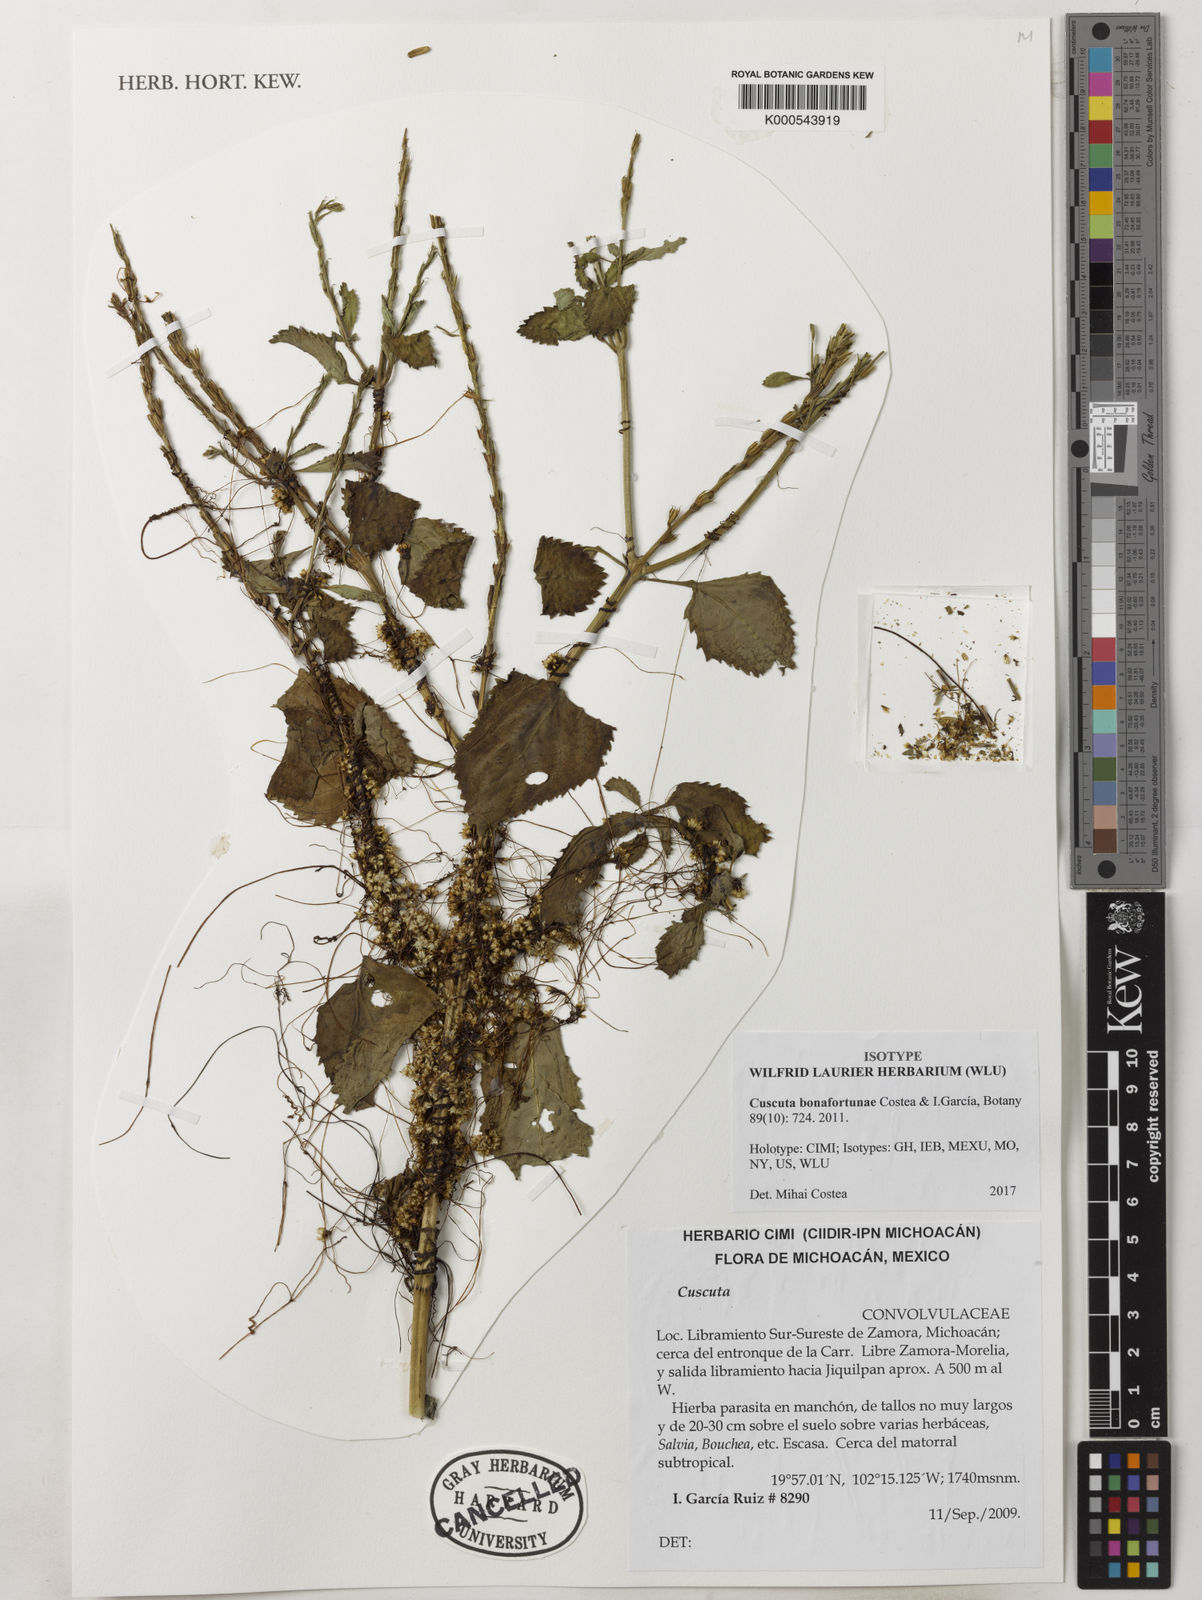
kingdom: Plantae
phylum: Tracheophyta
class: Magnoliopsida
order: Solanales
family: Convolvulaceae
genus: Cuscuta
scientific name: Cuscuta
